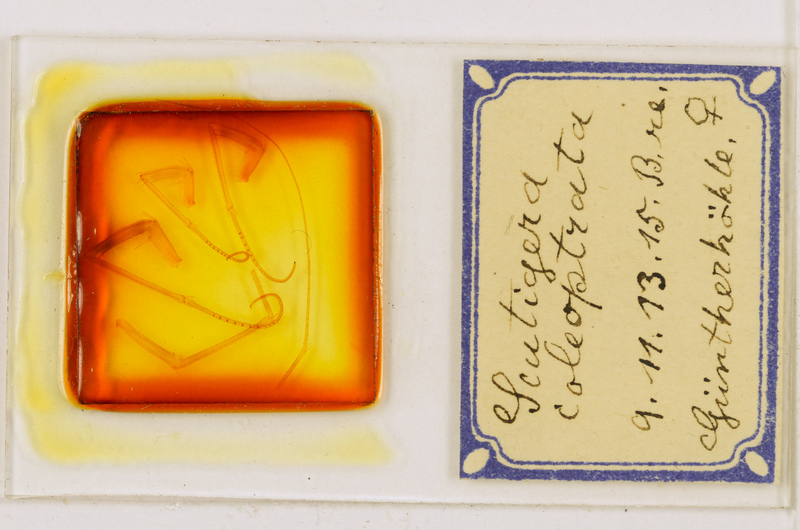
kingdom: Animalia
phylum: Arthropoda
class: Chilopoda
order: Scutigeromorpha
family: Scutigeridae
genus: Scutigera
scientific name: Scutigera coleoptrata
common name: House centipede
